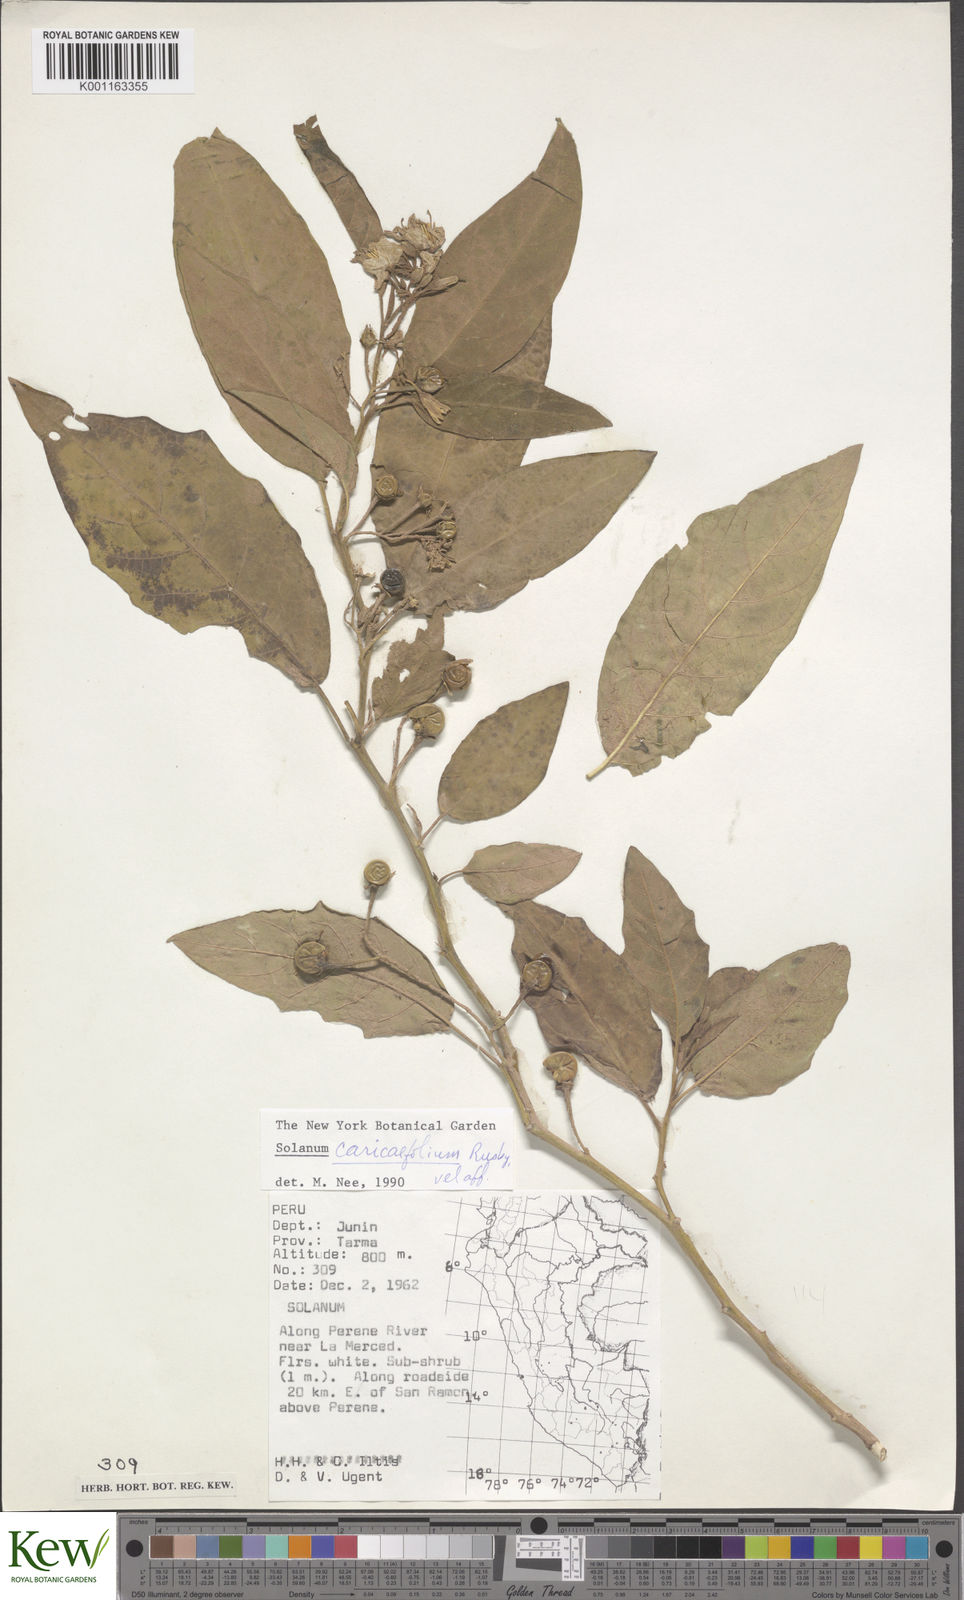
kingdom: Plantae
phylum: Tracheophyta
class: Magnoliopsida
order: Solanales
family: Solanaceae
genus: Solanum
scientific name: Solanum caricaefolium
